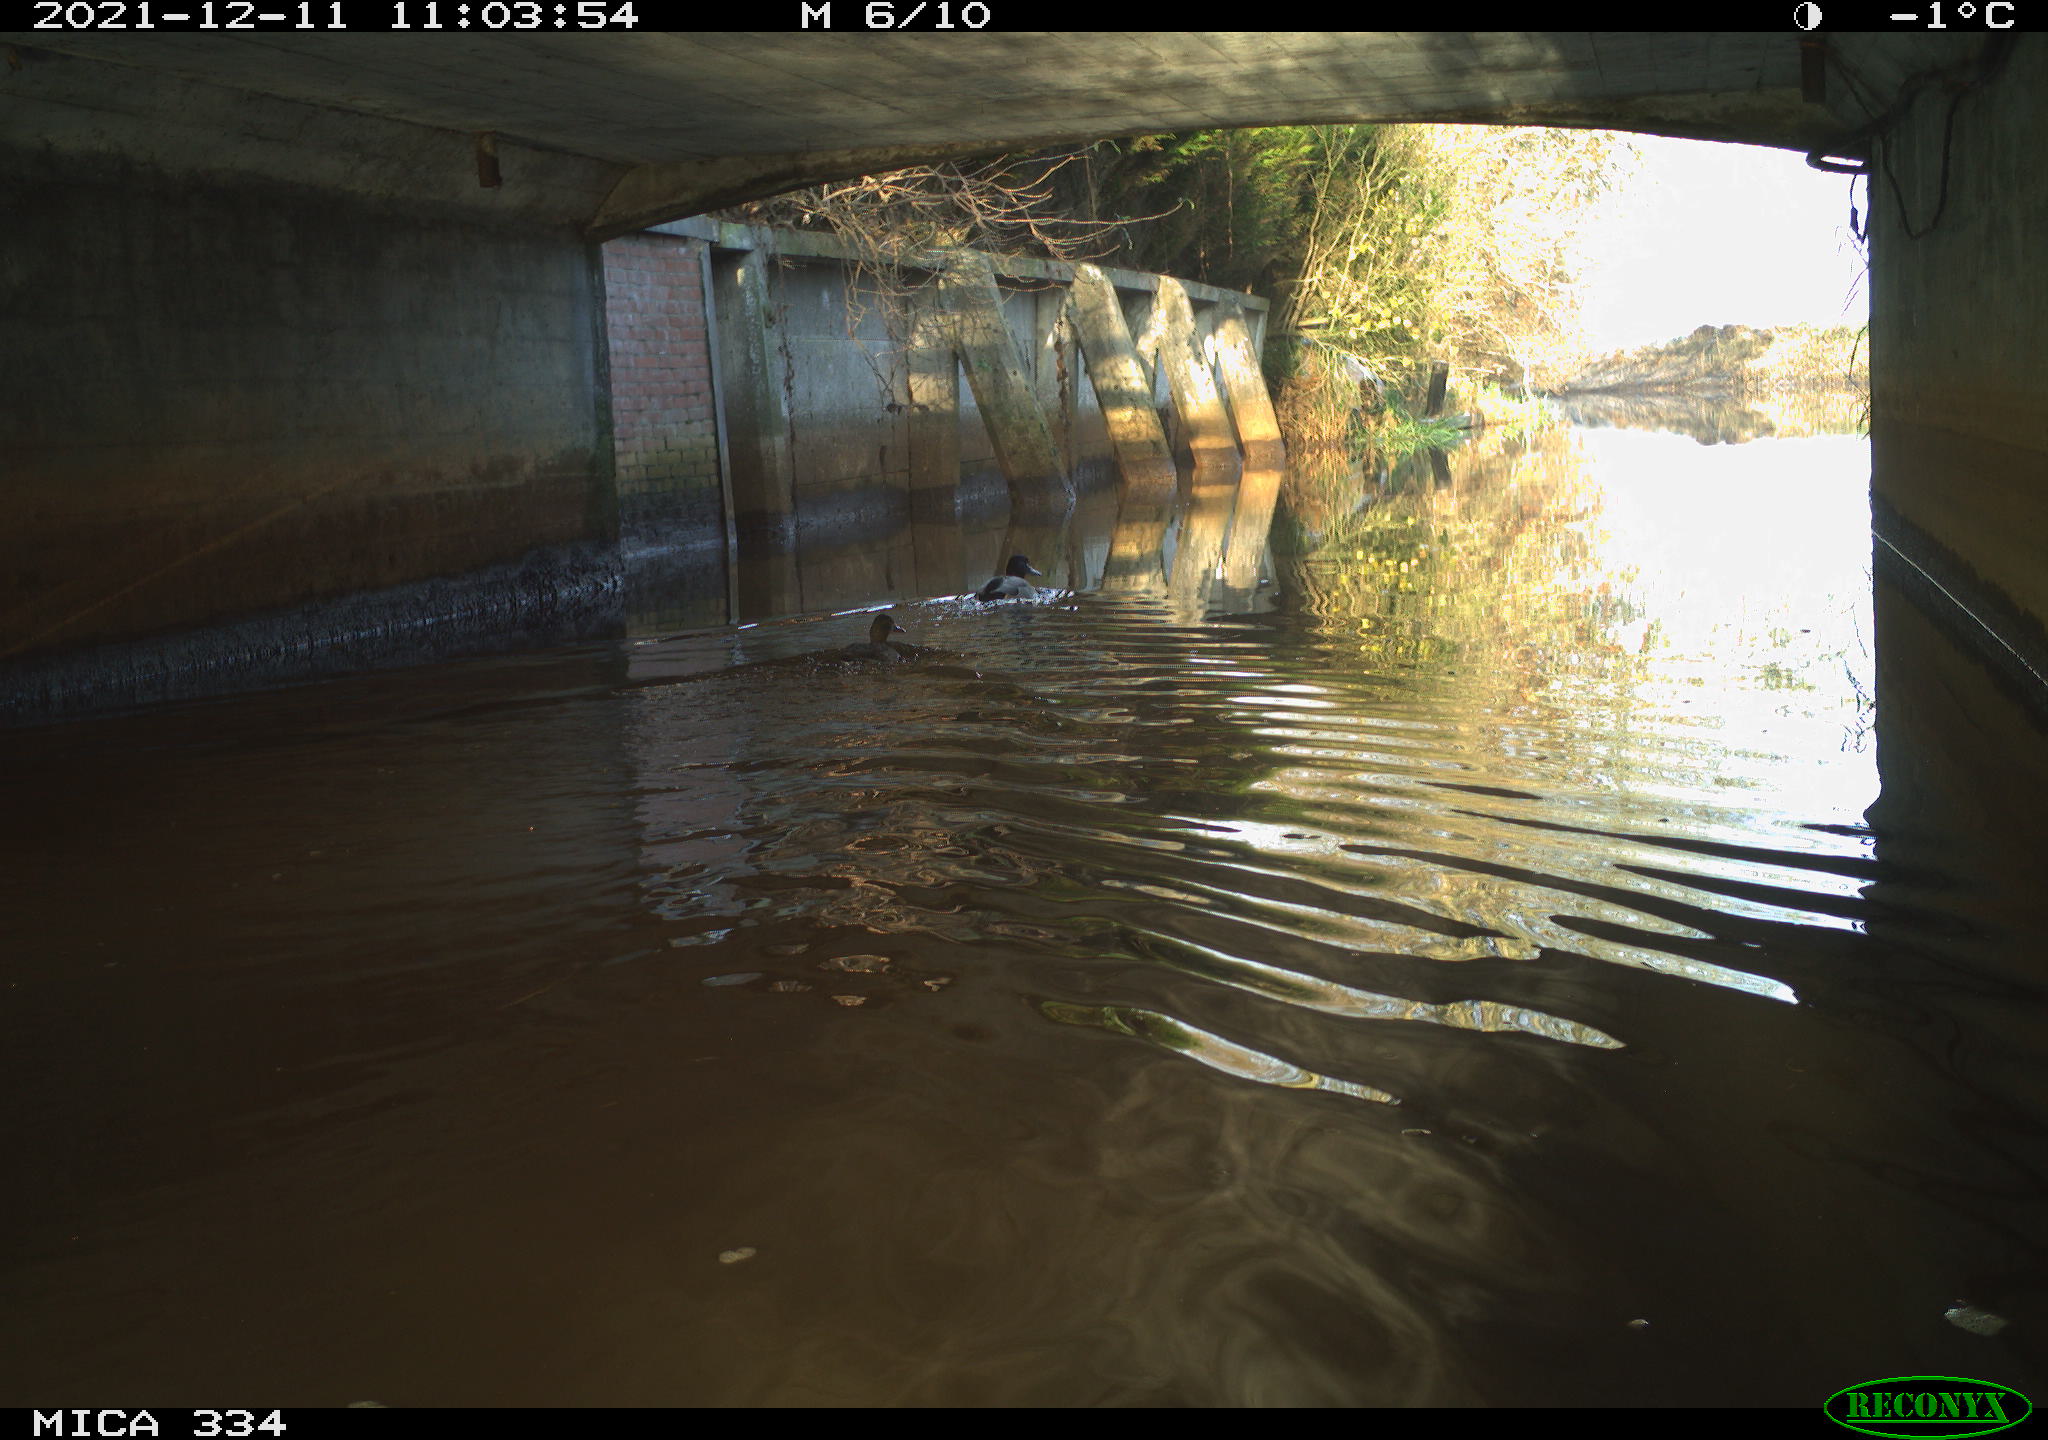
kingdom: Animalia
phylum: Chordata
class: Aves
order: Anseriformes
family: Anatidae
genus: Anas
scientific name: Anas platyrhynchos
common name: Mallard
